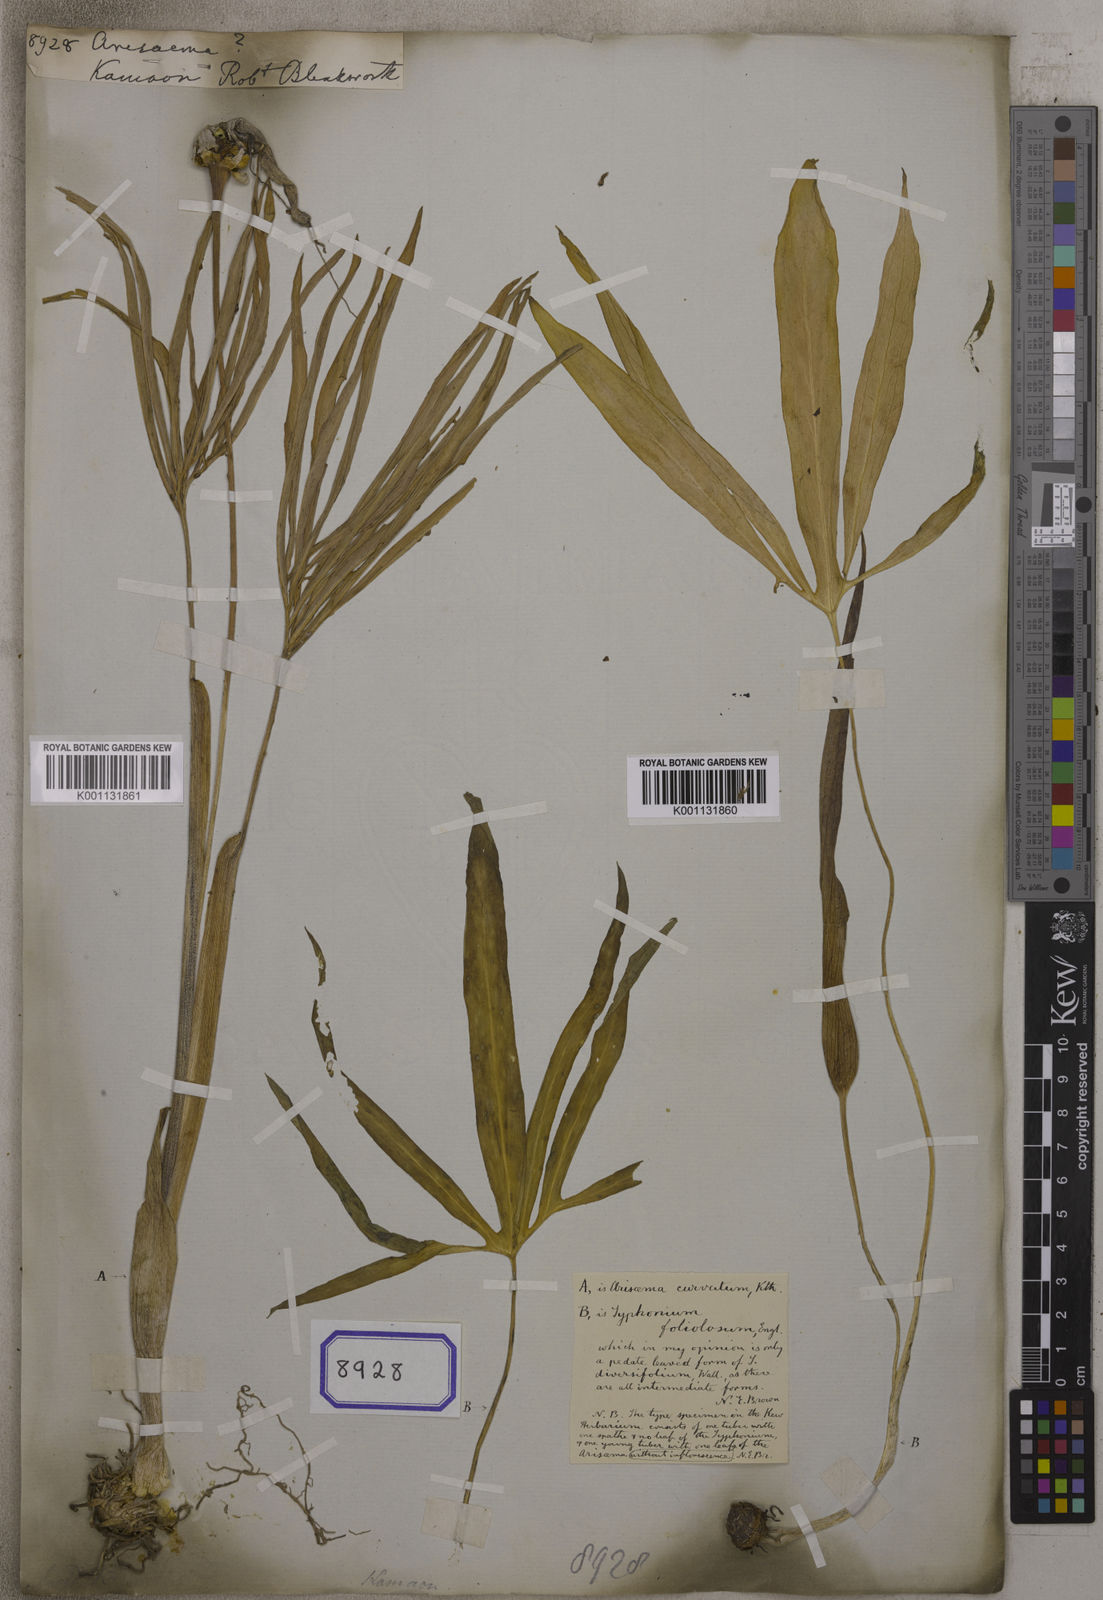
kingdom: Plantae
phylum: Tracheophyta
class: Liliopsida
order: Alismatales
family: Araceae
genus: Arisaema
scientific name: Arisaema
